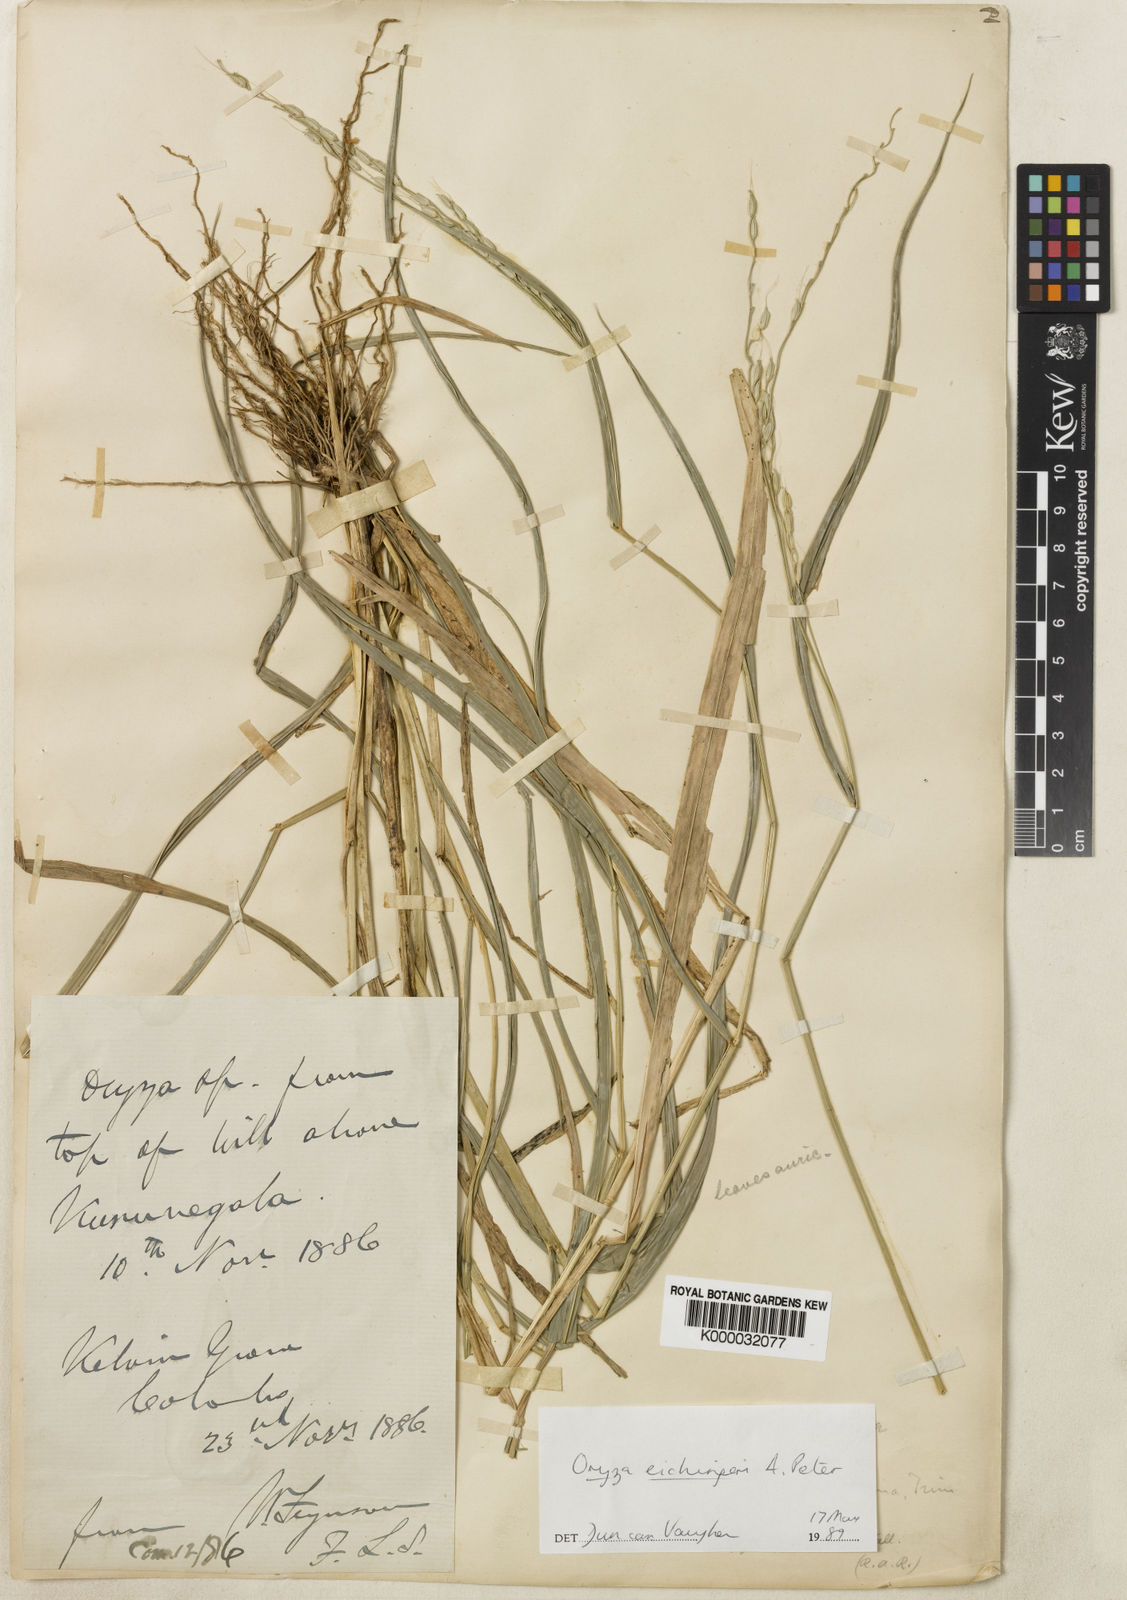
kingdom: Plantae
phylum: Tracheophyta
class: Liliopsida
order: Poales
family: Poaceae
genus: Oryza
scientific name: Oryza eichingeri
